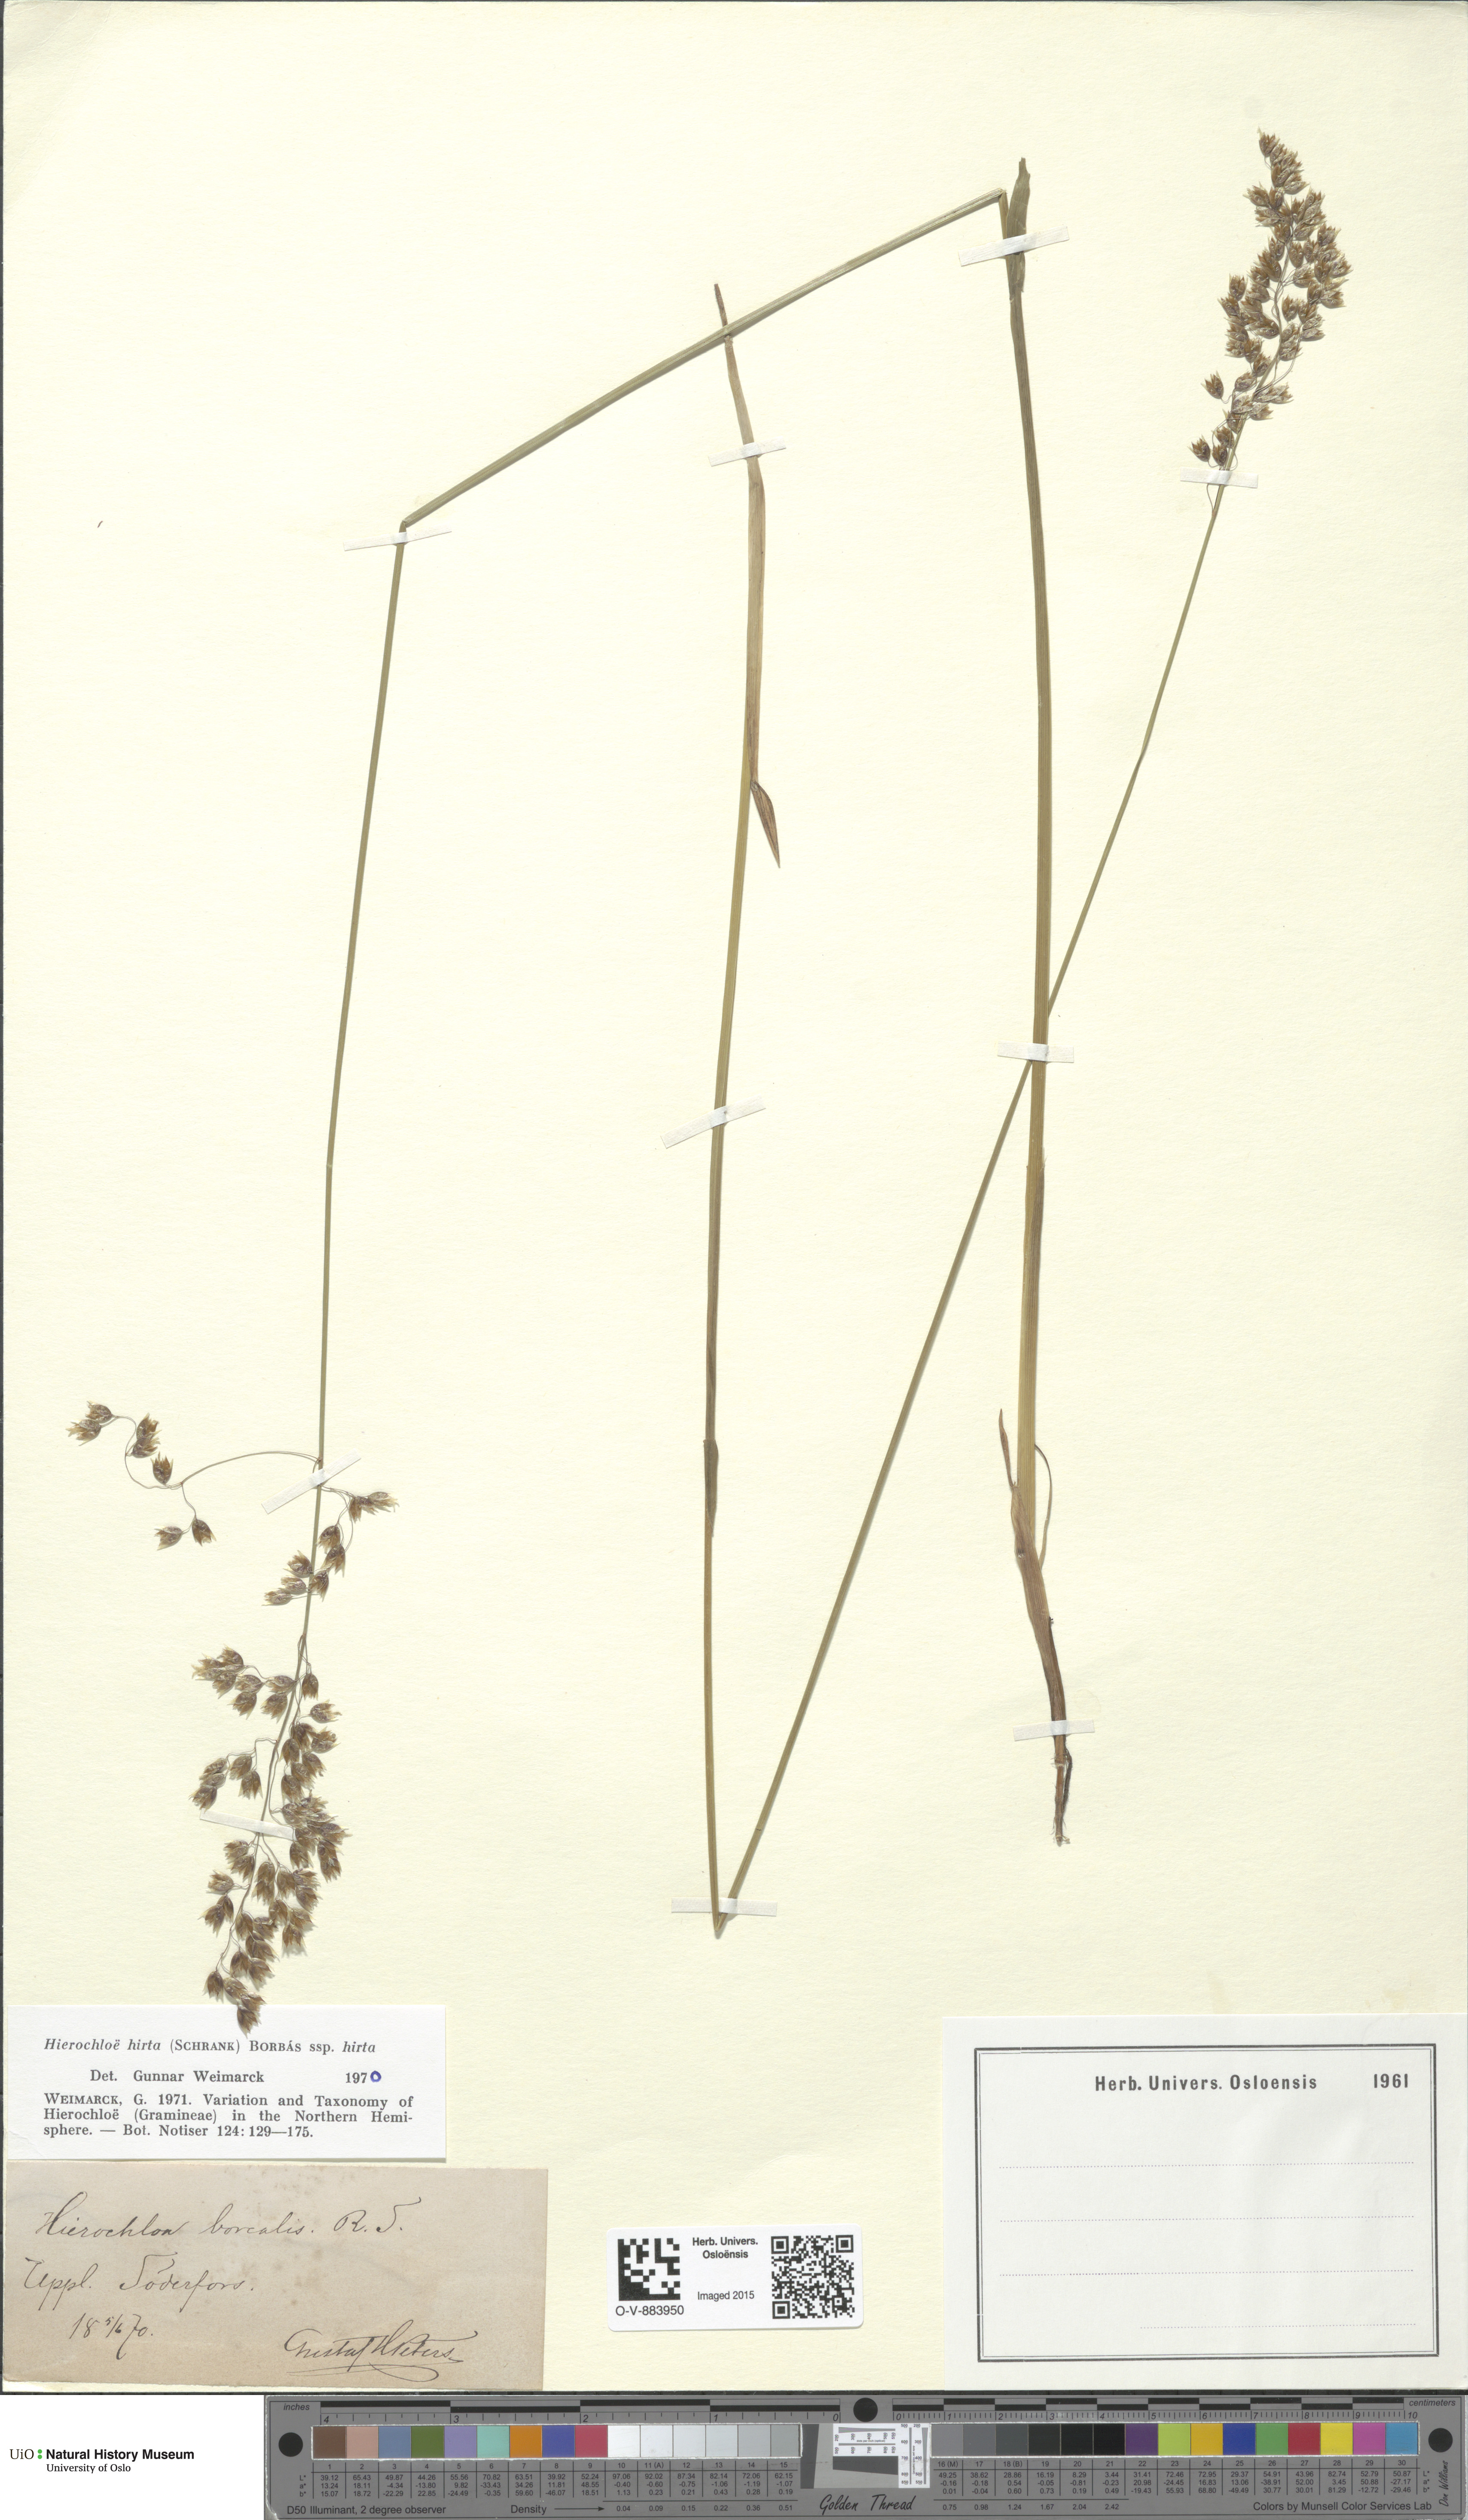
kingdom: Plantae
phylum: Tracheophyta
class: Liliopsida
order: Poales
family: Poaceae
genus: Anthoxanthum
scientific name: Anthoxanthum nitens
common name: Holy grass
